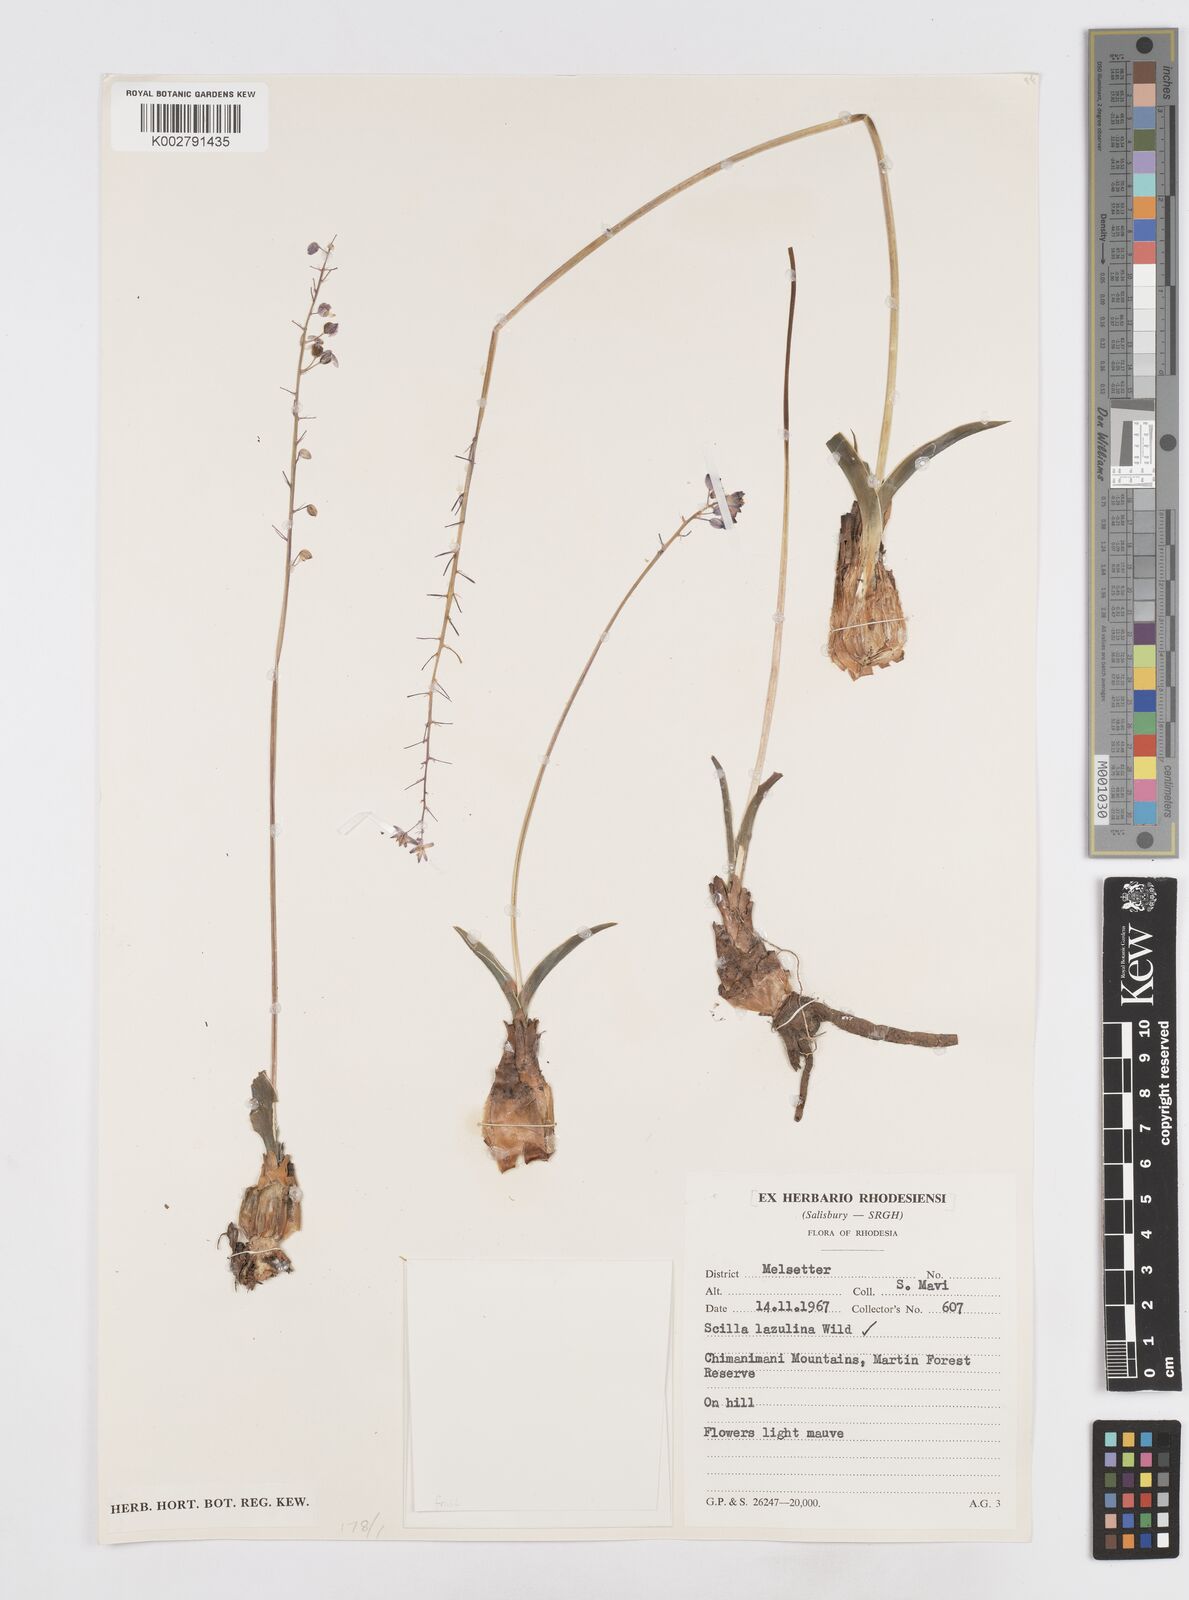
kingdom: Plantae
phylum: Tracheophyta
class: Liliopsida
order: Asparagales
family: Asparagaceae
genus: Scilla
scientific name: Scilla
